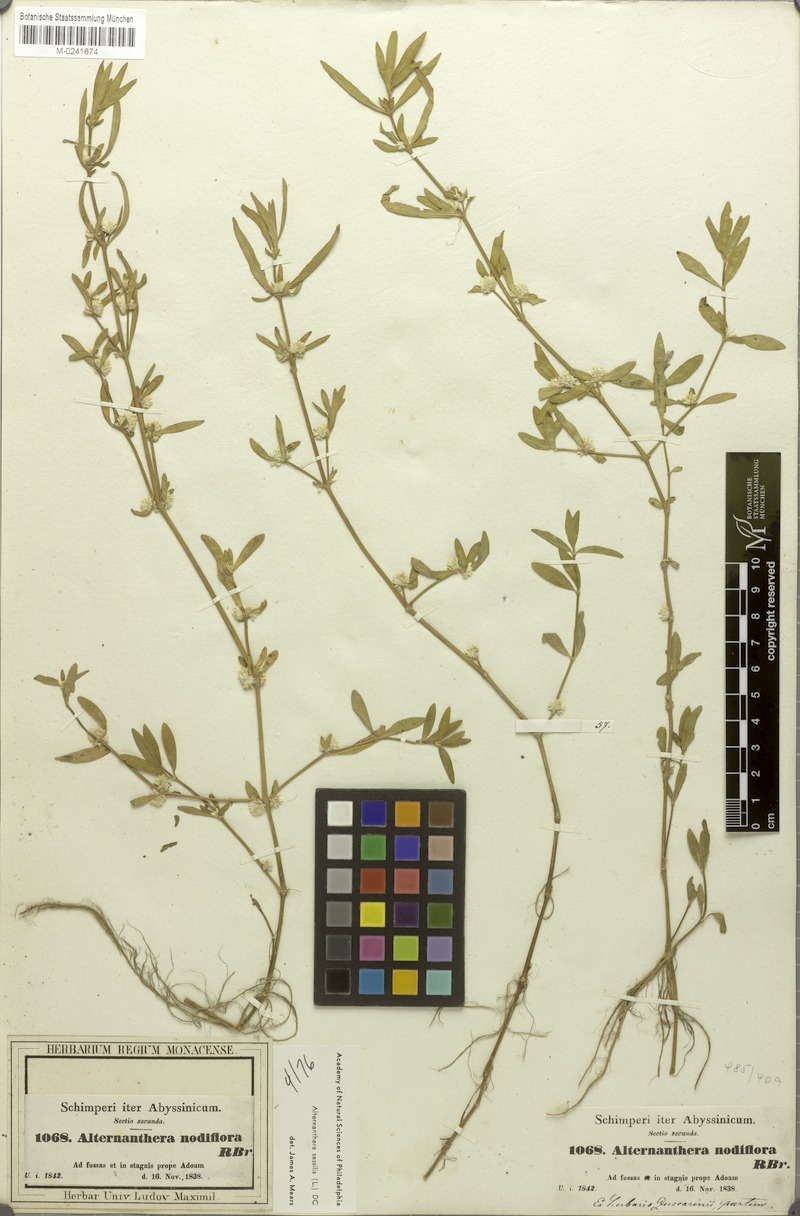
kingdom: Plantae
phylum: Tracheophyta
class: Magnoliopsida
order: Caryophyllales
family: Amaranthaceae
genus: Alternanthera
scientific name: Alternanthera sessilis
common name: Sessile joyweed
